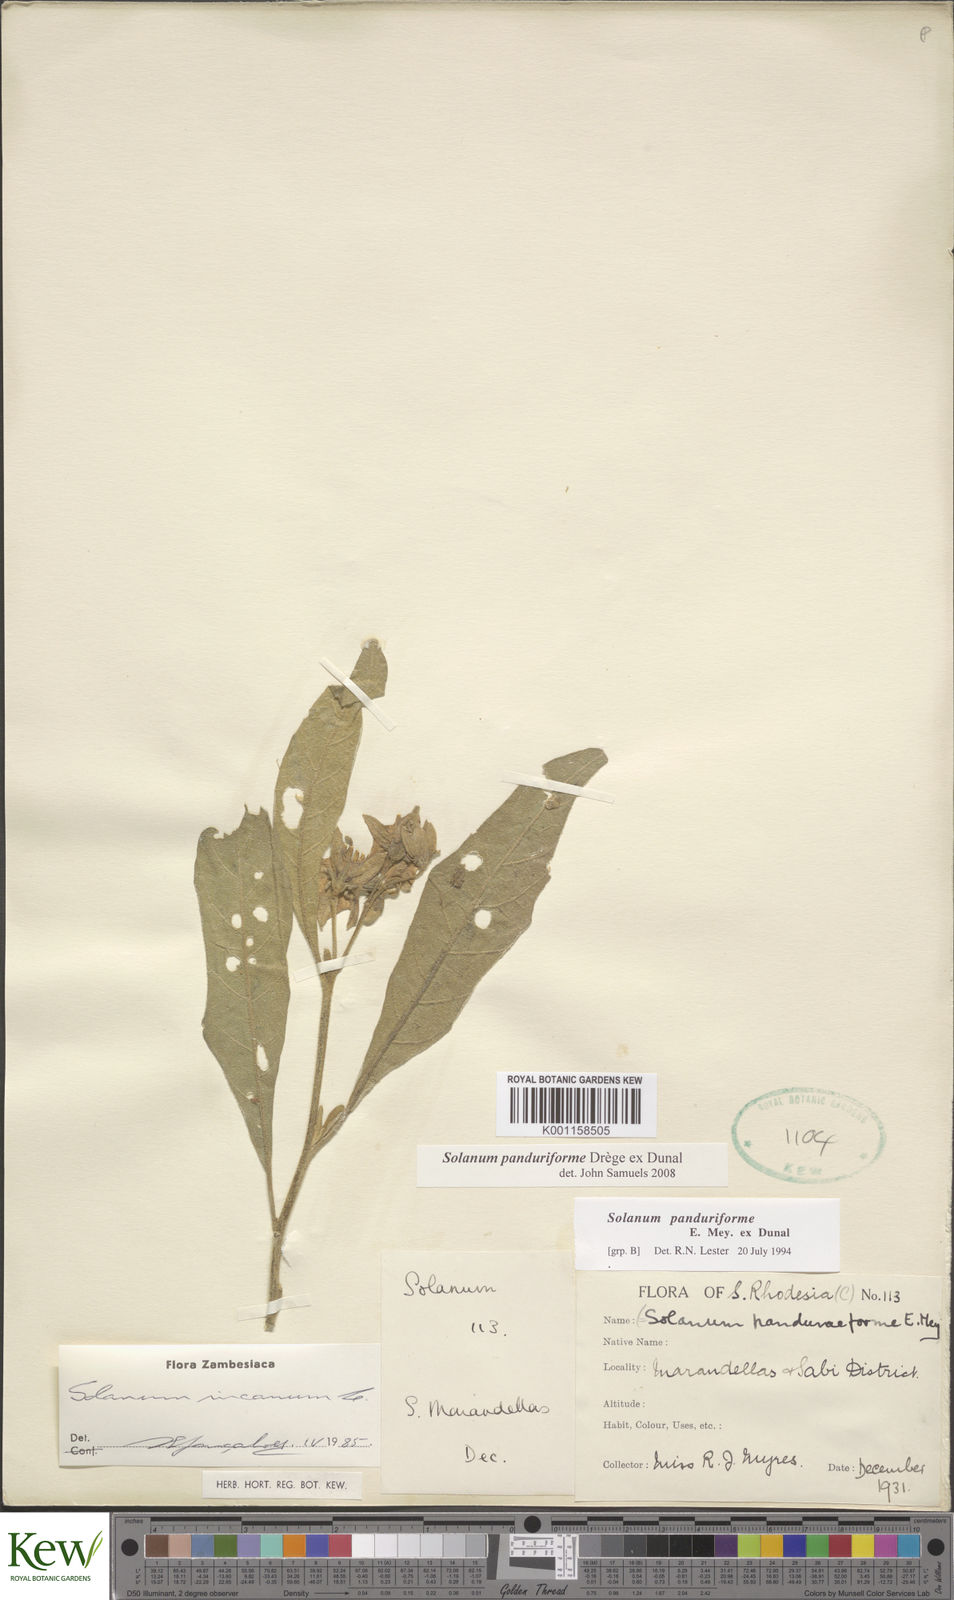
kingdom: Plantae
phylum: Tracheophyta
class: Magnoliopsida
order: Solanales
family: Solanaceae
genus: Solanum
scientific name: Solanum campylacanthum
